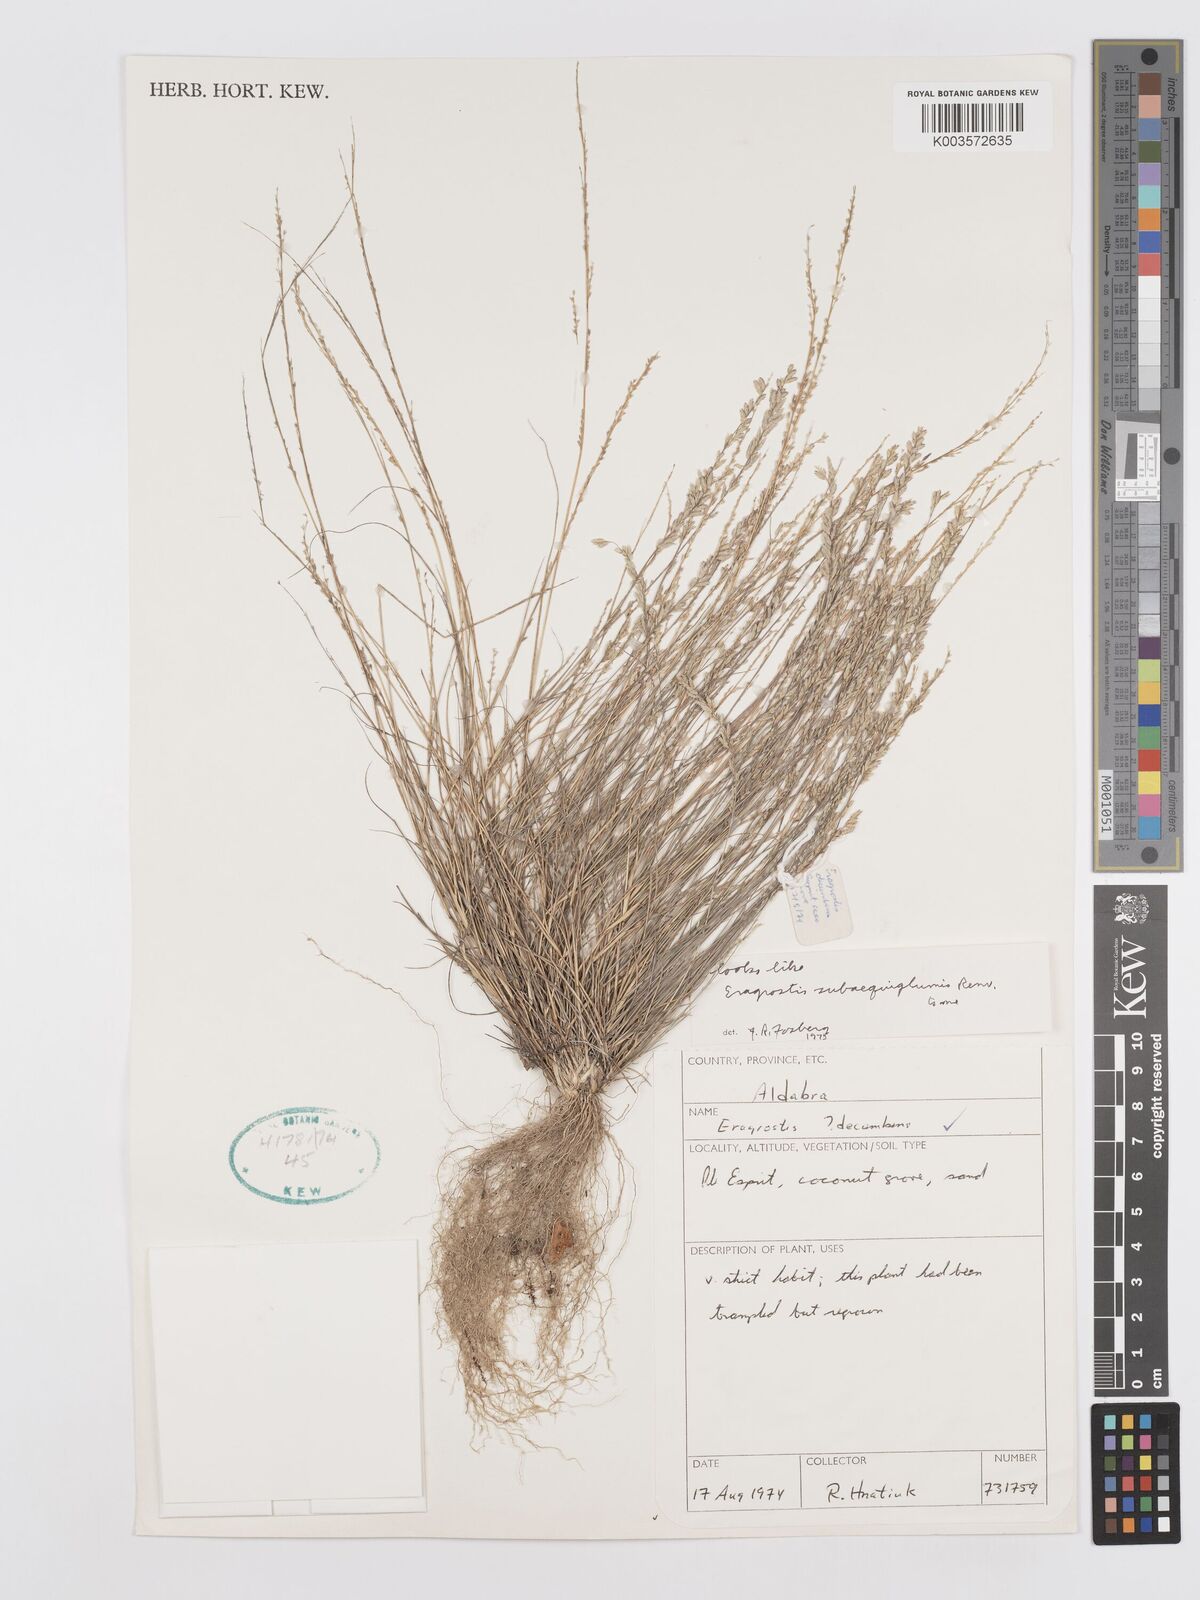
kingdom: Plantae
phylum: Tracheophyta
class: Liliopsida
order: Poales
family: Poaceae
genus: Eragrostis
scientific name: Eragrostis subaequiglumis
